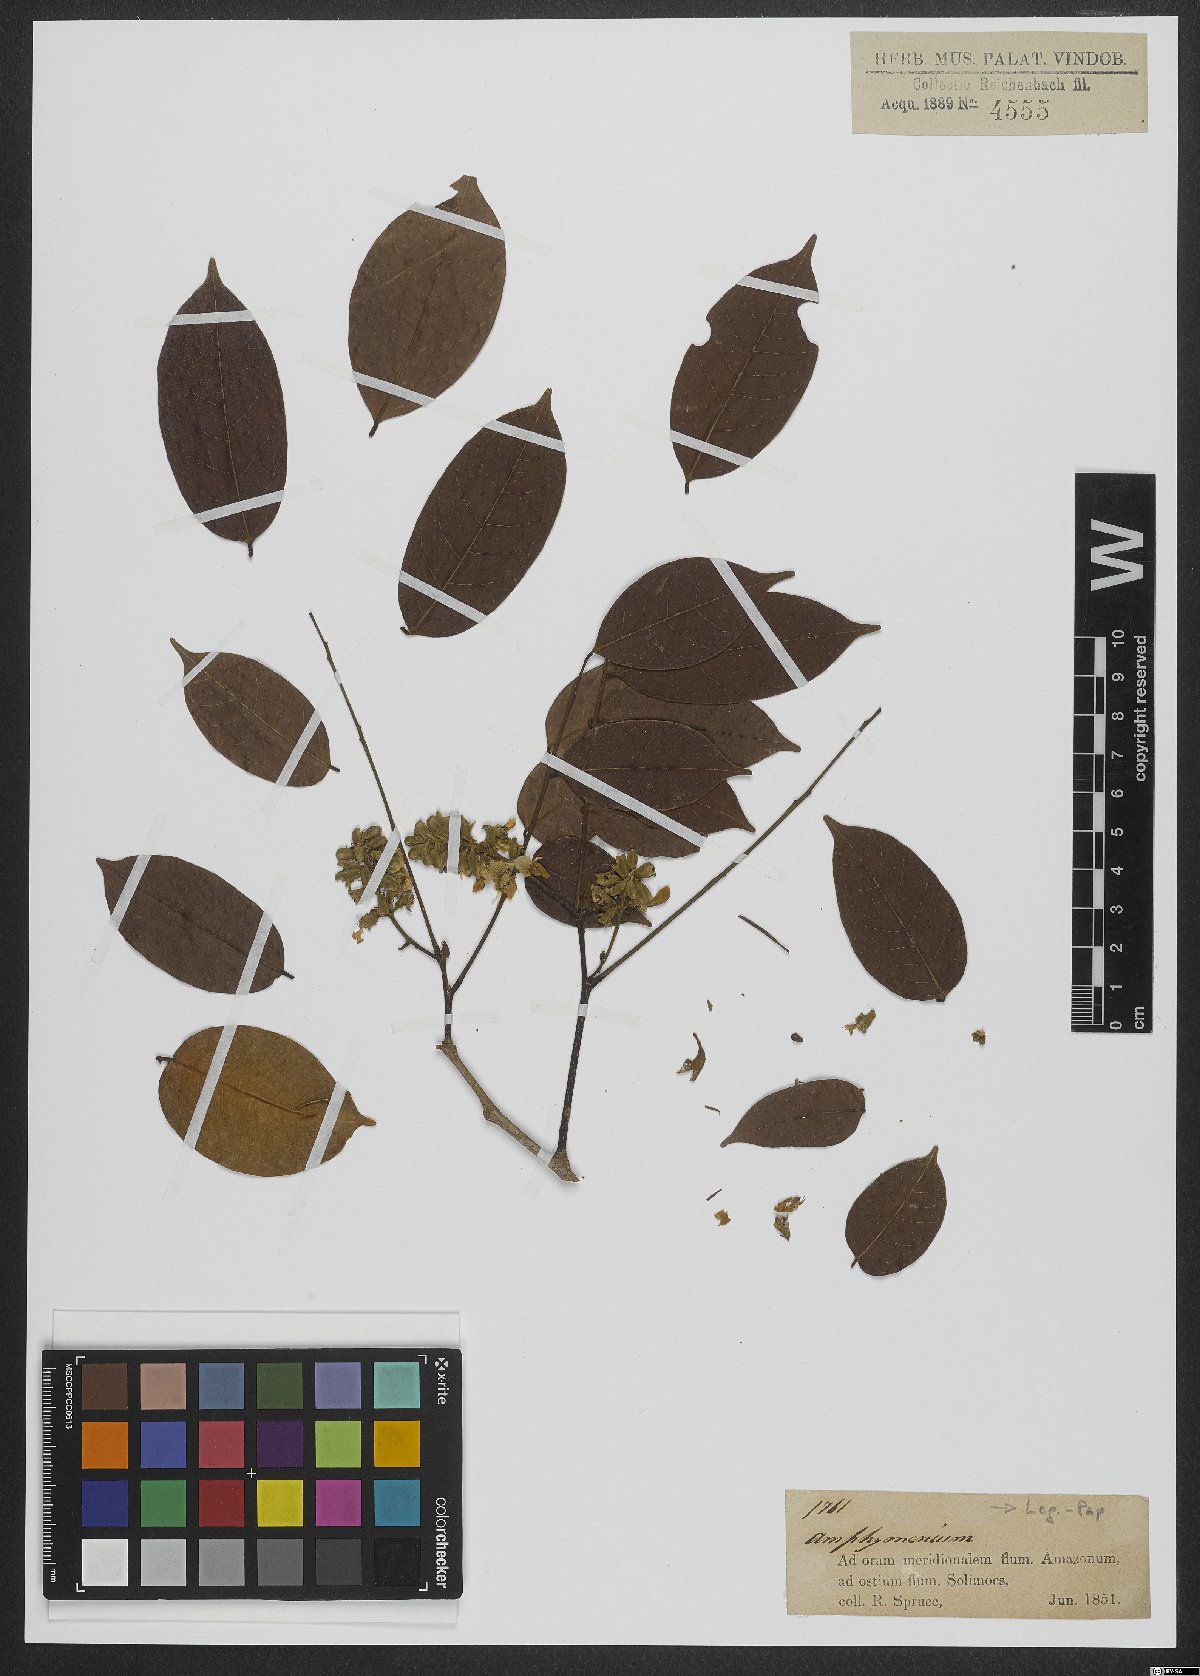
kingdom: Plantae
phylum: Tracheophyta
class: Magnoliopsida
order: Fabales
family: Fabaceae
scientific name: Fabaceae
